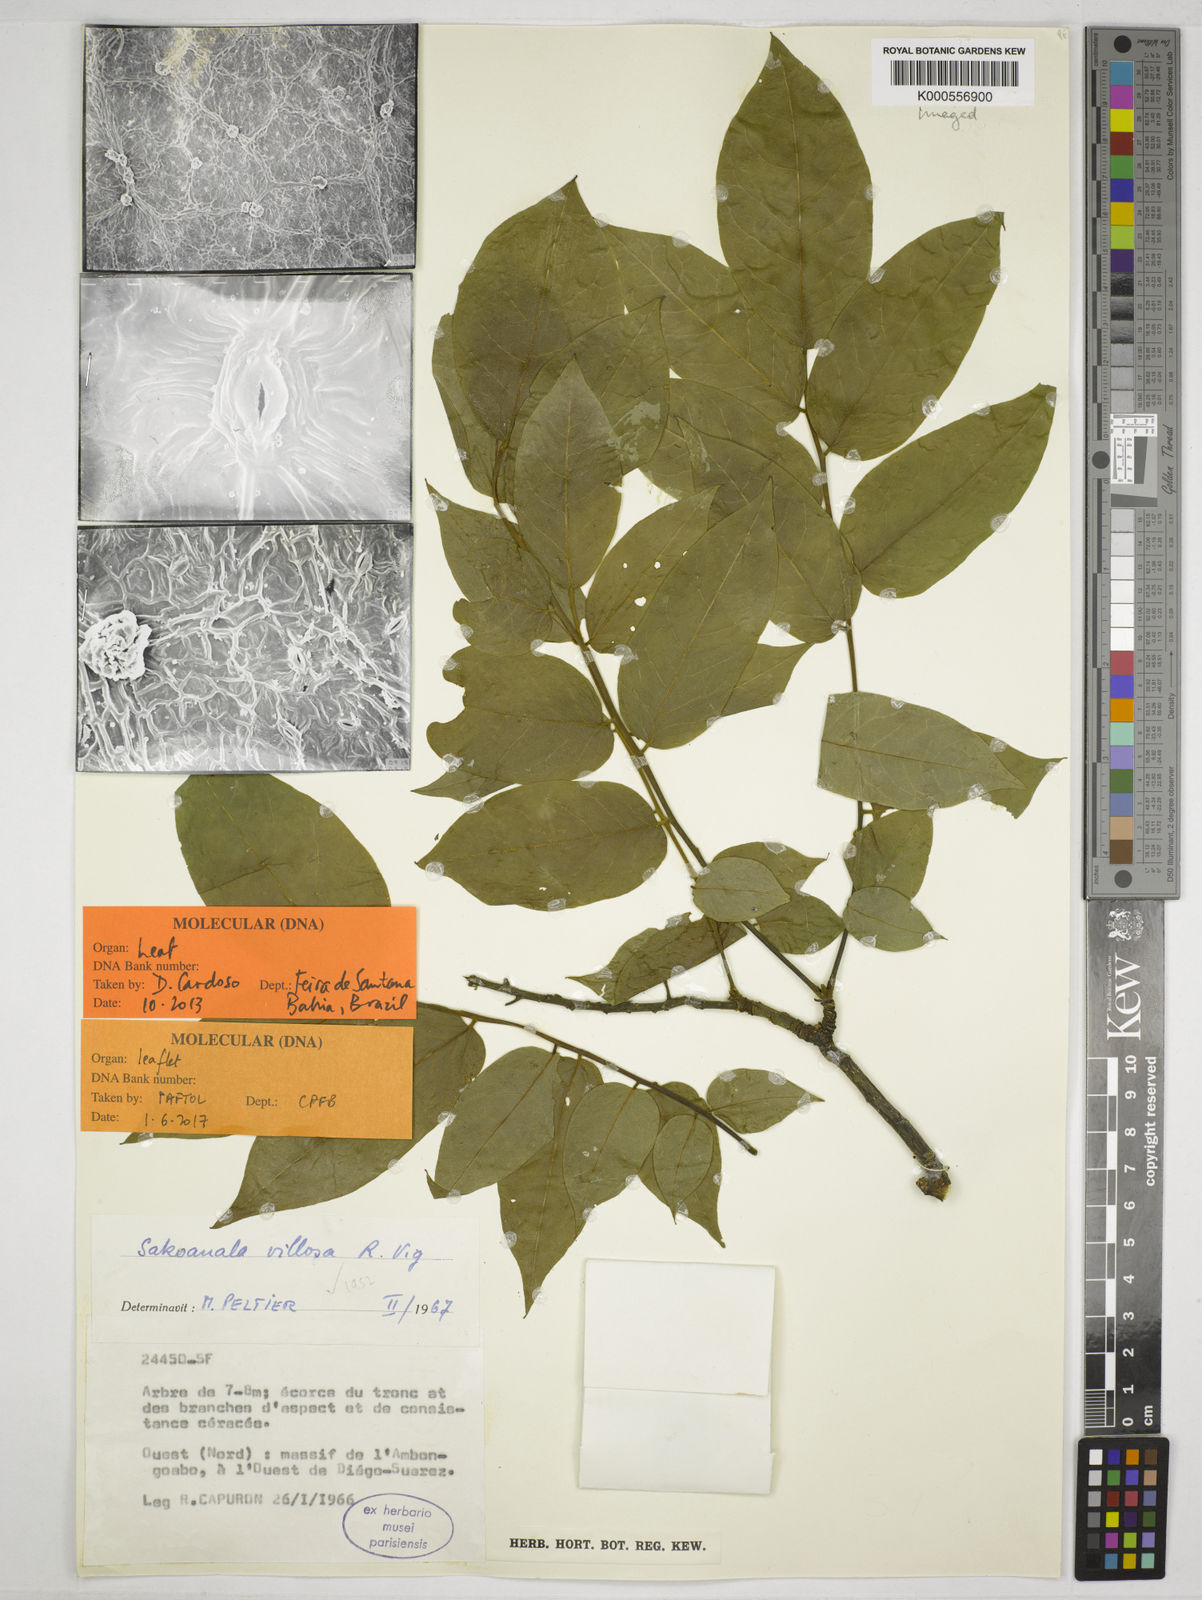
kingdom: Plantae
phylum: Tracheophyta
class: Magnoliopsida
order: Fabales
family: Fabaceae
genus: Sakoanala
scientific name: Sakoanala villosa
